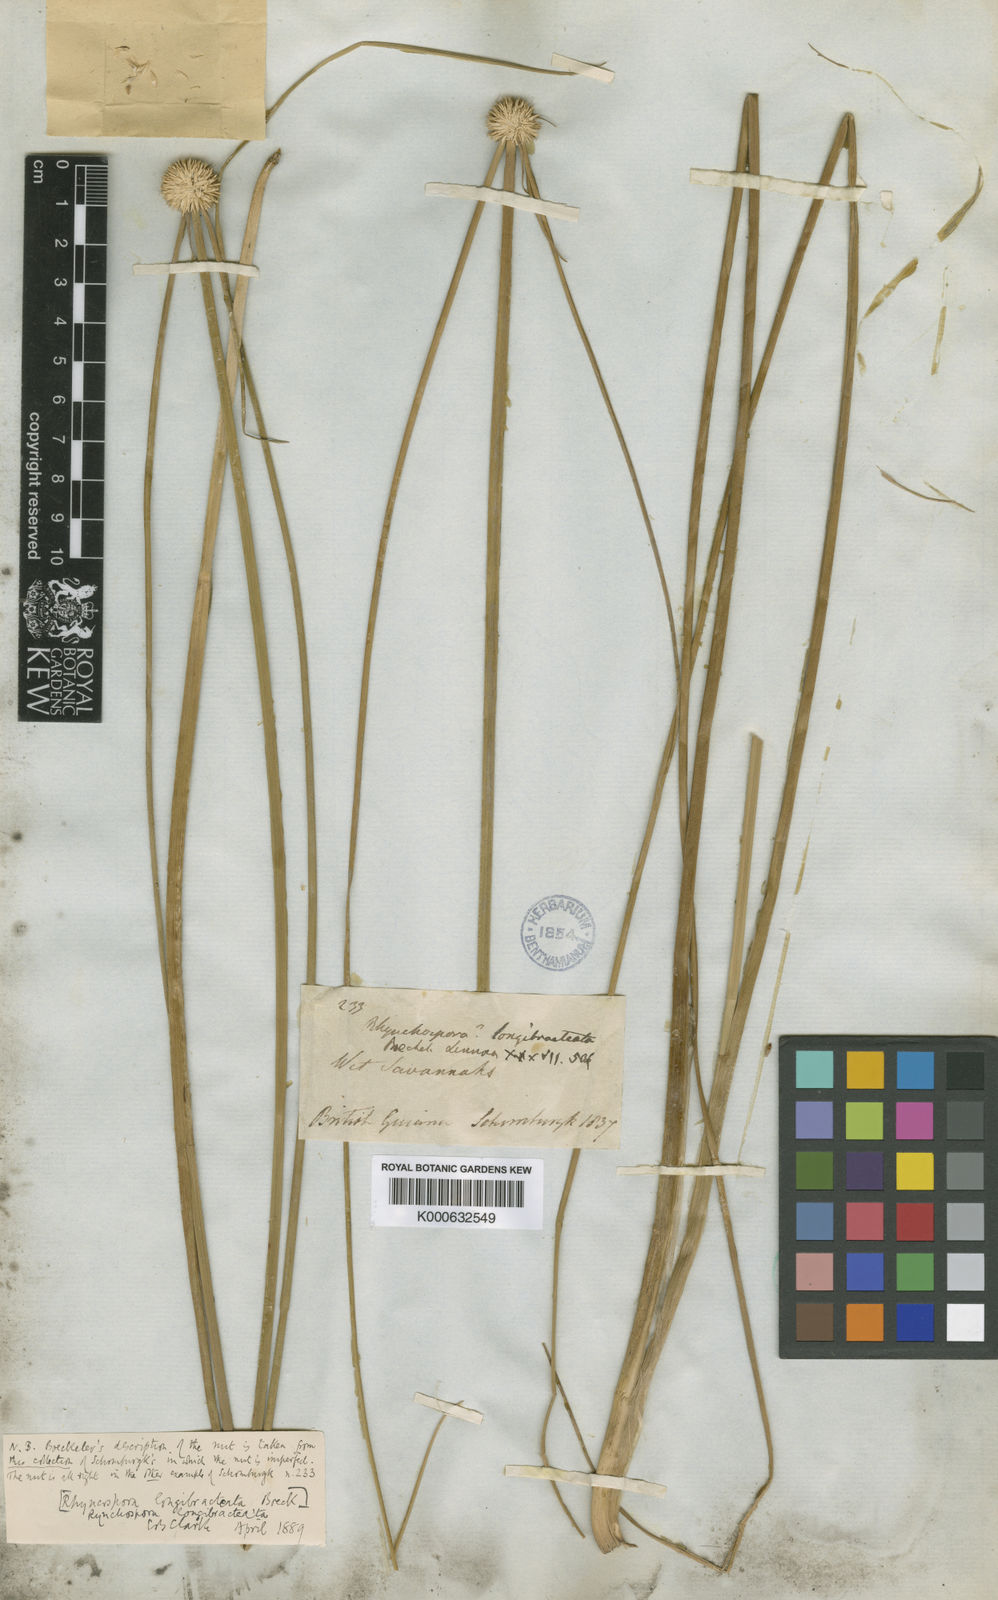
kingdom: Plantae
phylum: Tracheophyta
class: Liliopsida
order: Poales
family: Cyperaceae
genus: Rhynchospora
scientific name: Rhynchospora longibracteata
